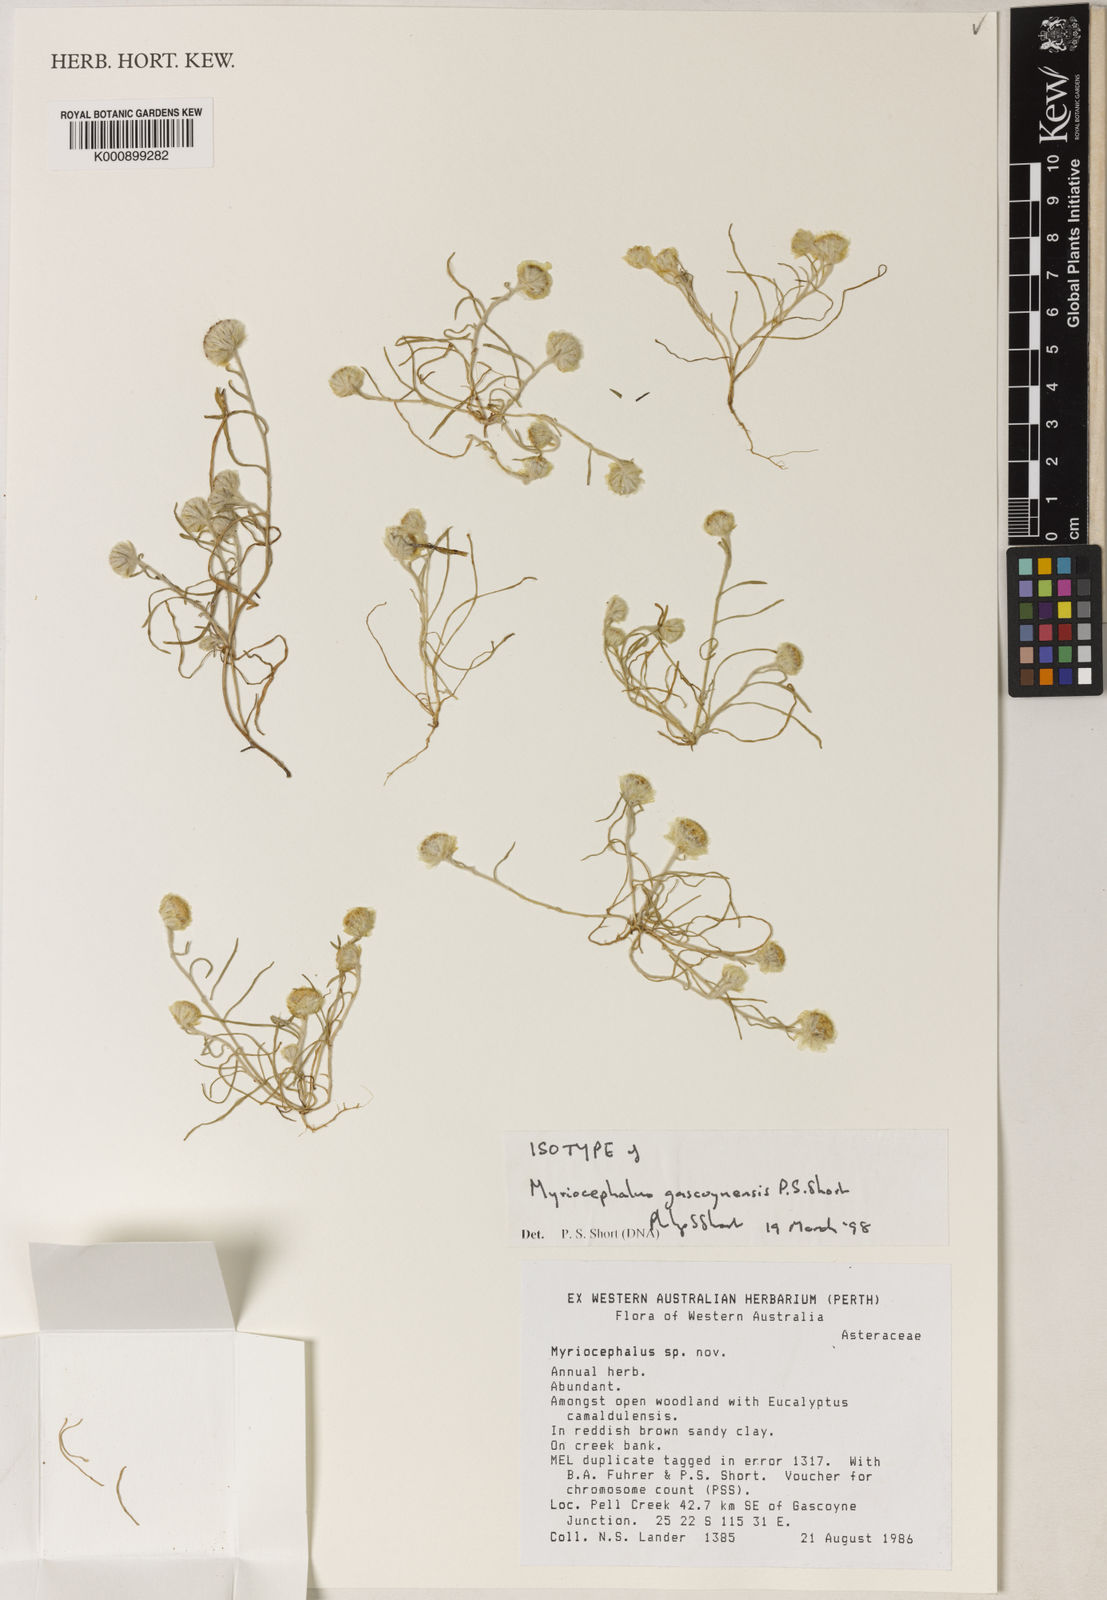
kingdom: Plantae
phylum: Tracheophyta
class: Magnoliopsida
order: Asterales
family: Asteraceae
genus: Myriocephalus
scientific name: Myriocephalus gascoynensis
